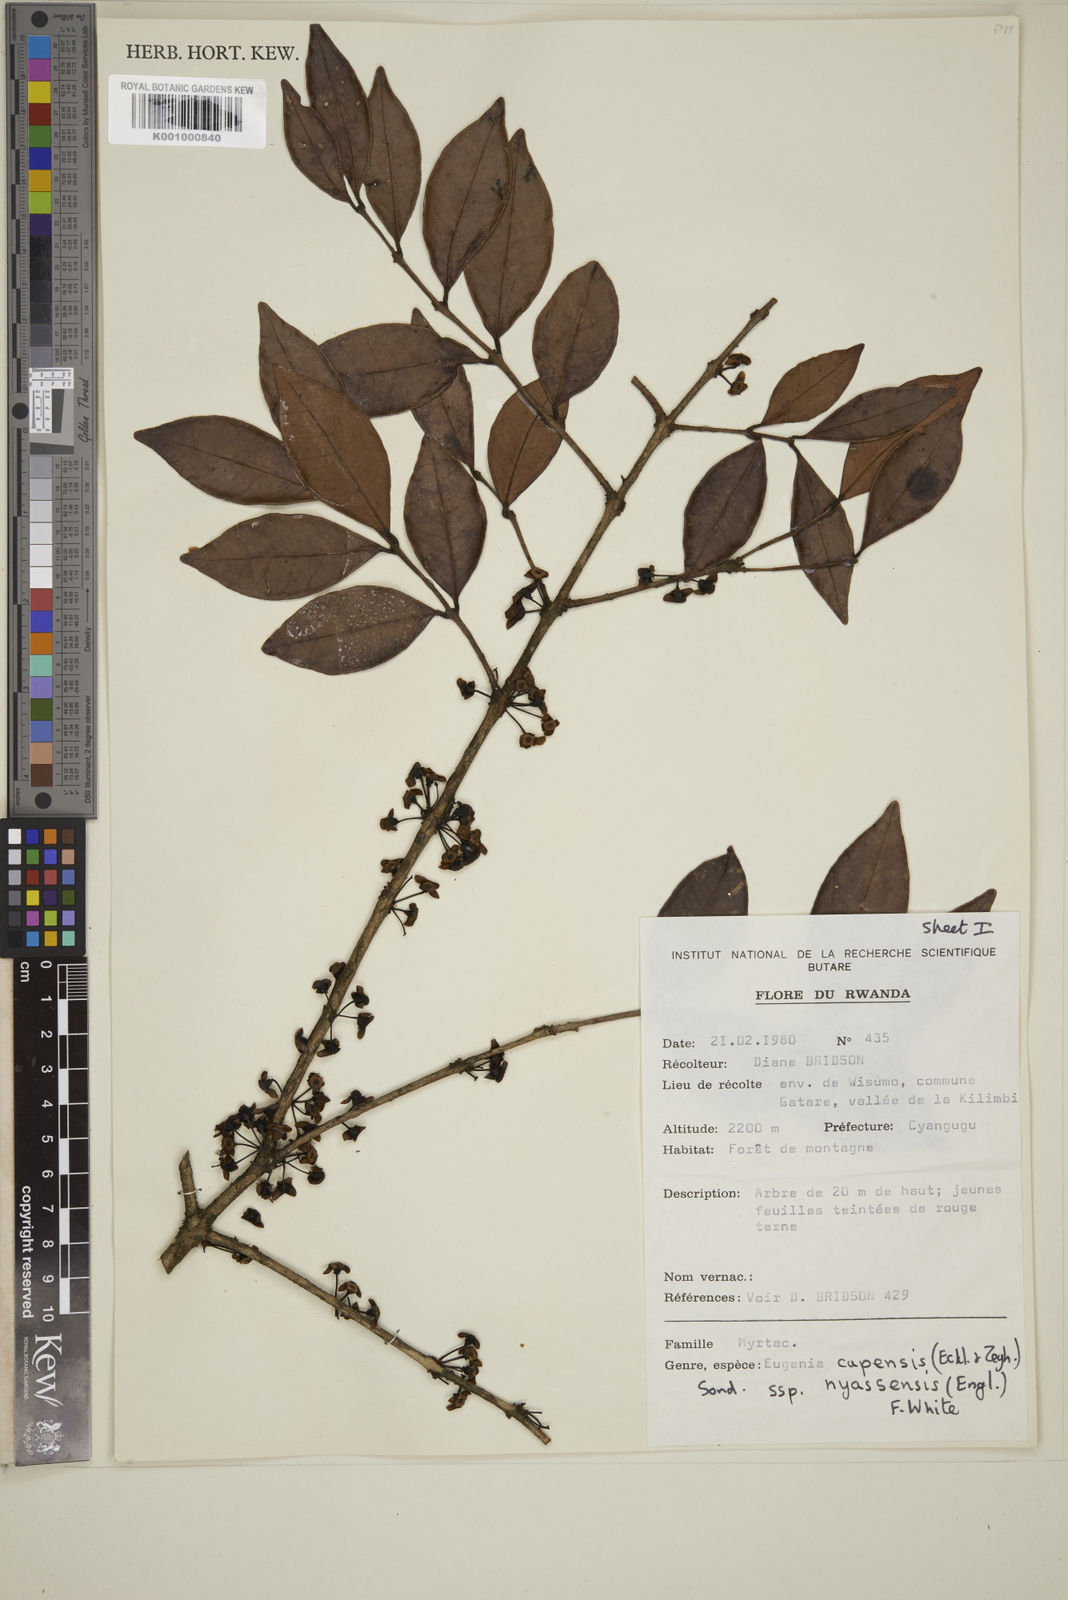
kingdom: Plantae
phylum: Tracheophyta
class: Magnoliopsida
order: Myrtales
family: Myrtaceae
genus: Eugenia
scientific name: Eugenia capensis
